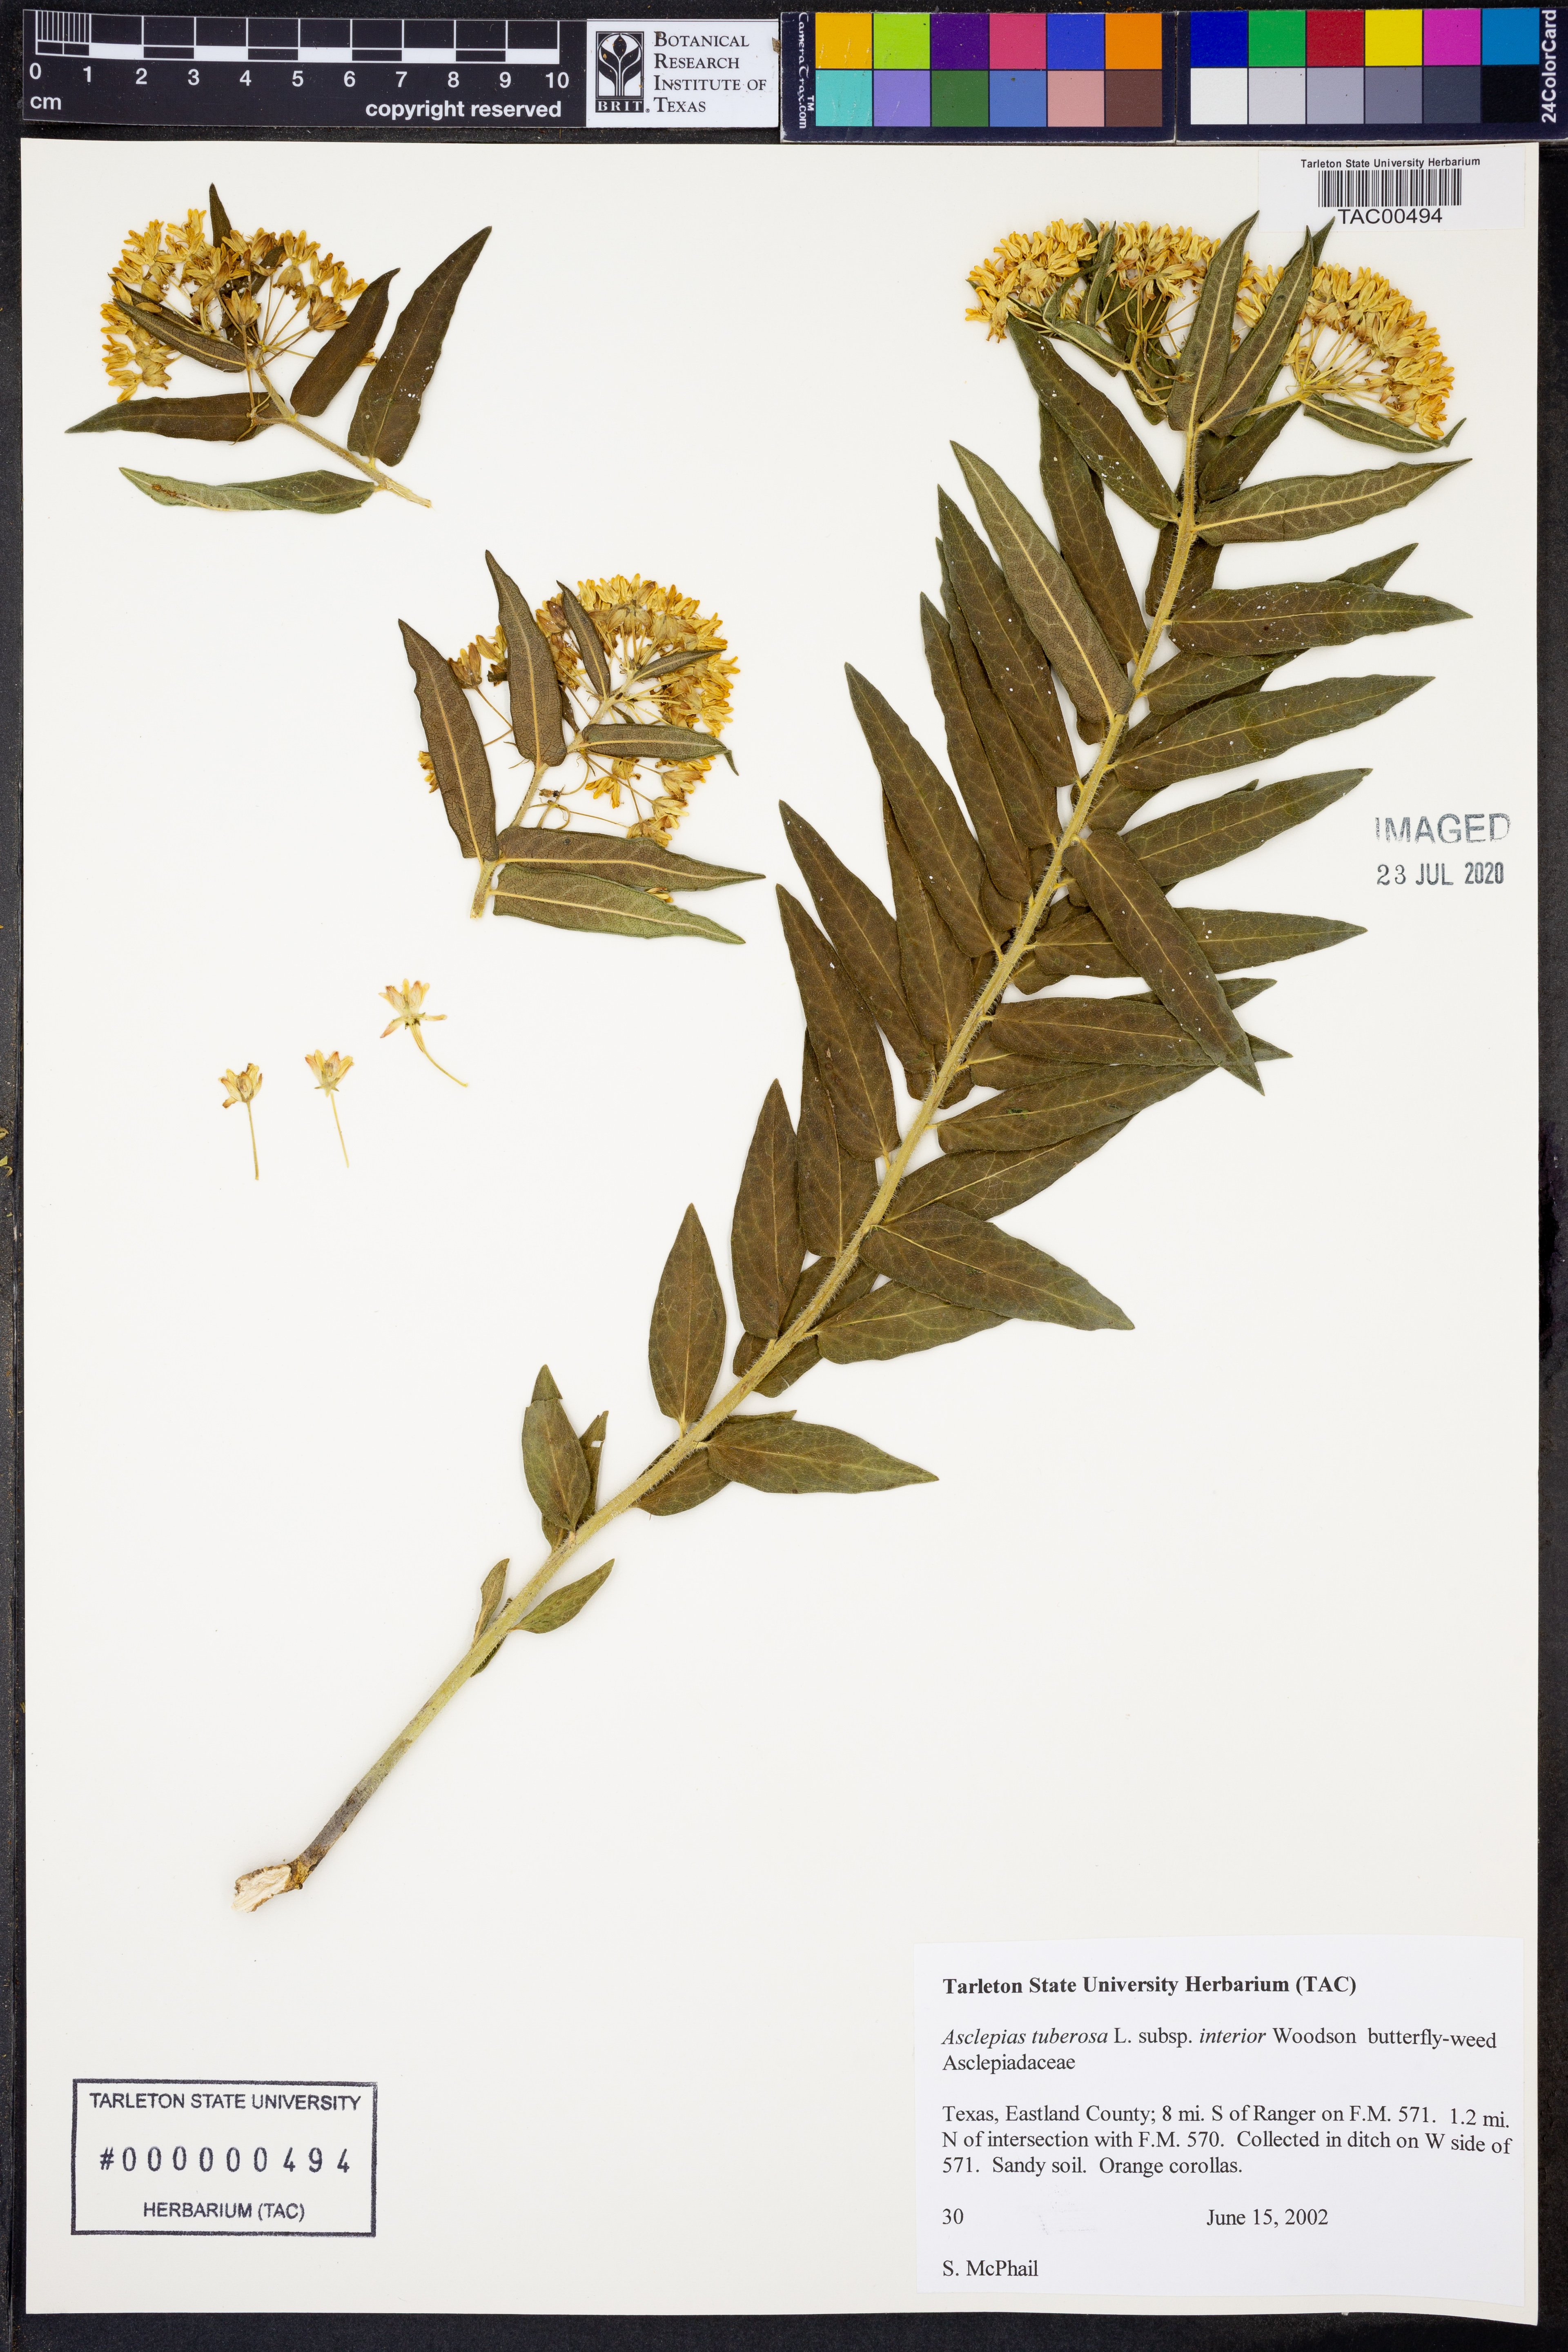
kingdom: Plantae
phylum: Tracheophyta
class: Magnoliopsida
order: Gentianales
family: Apocynaceae
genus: Asclepias
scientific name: Asclepias tuberosa
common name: Butterfly milkweed
